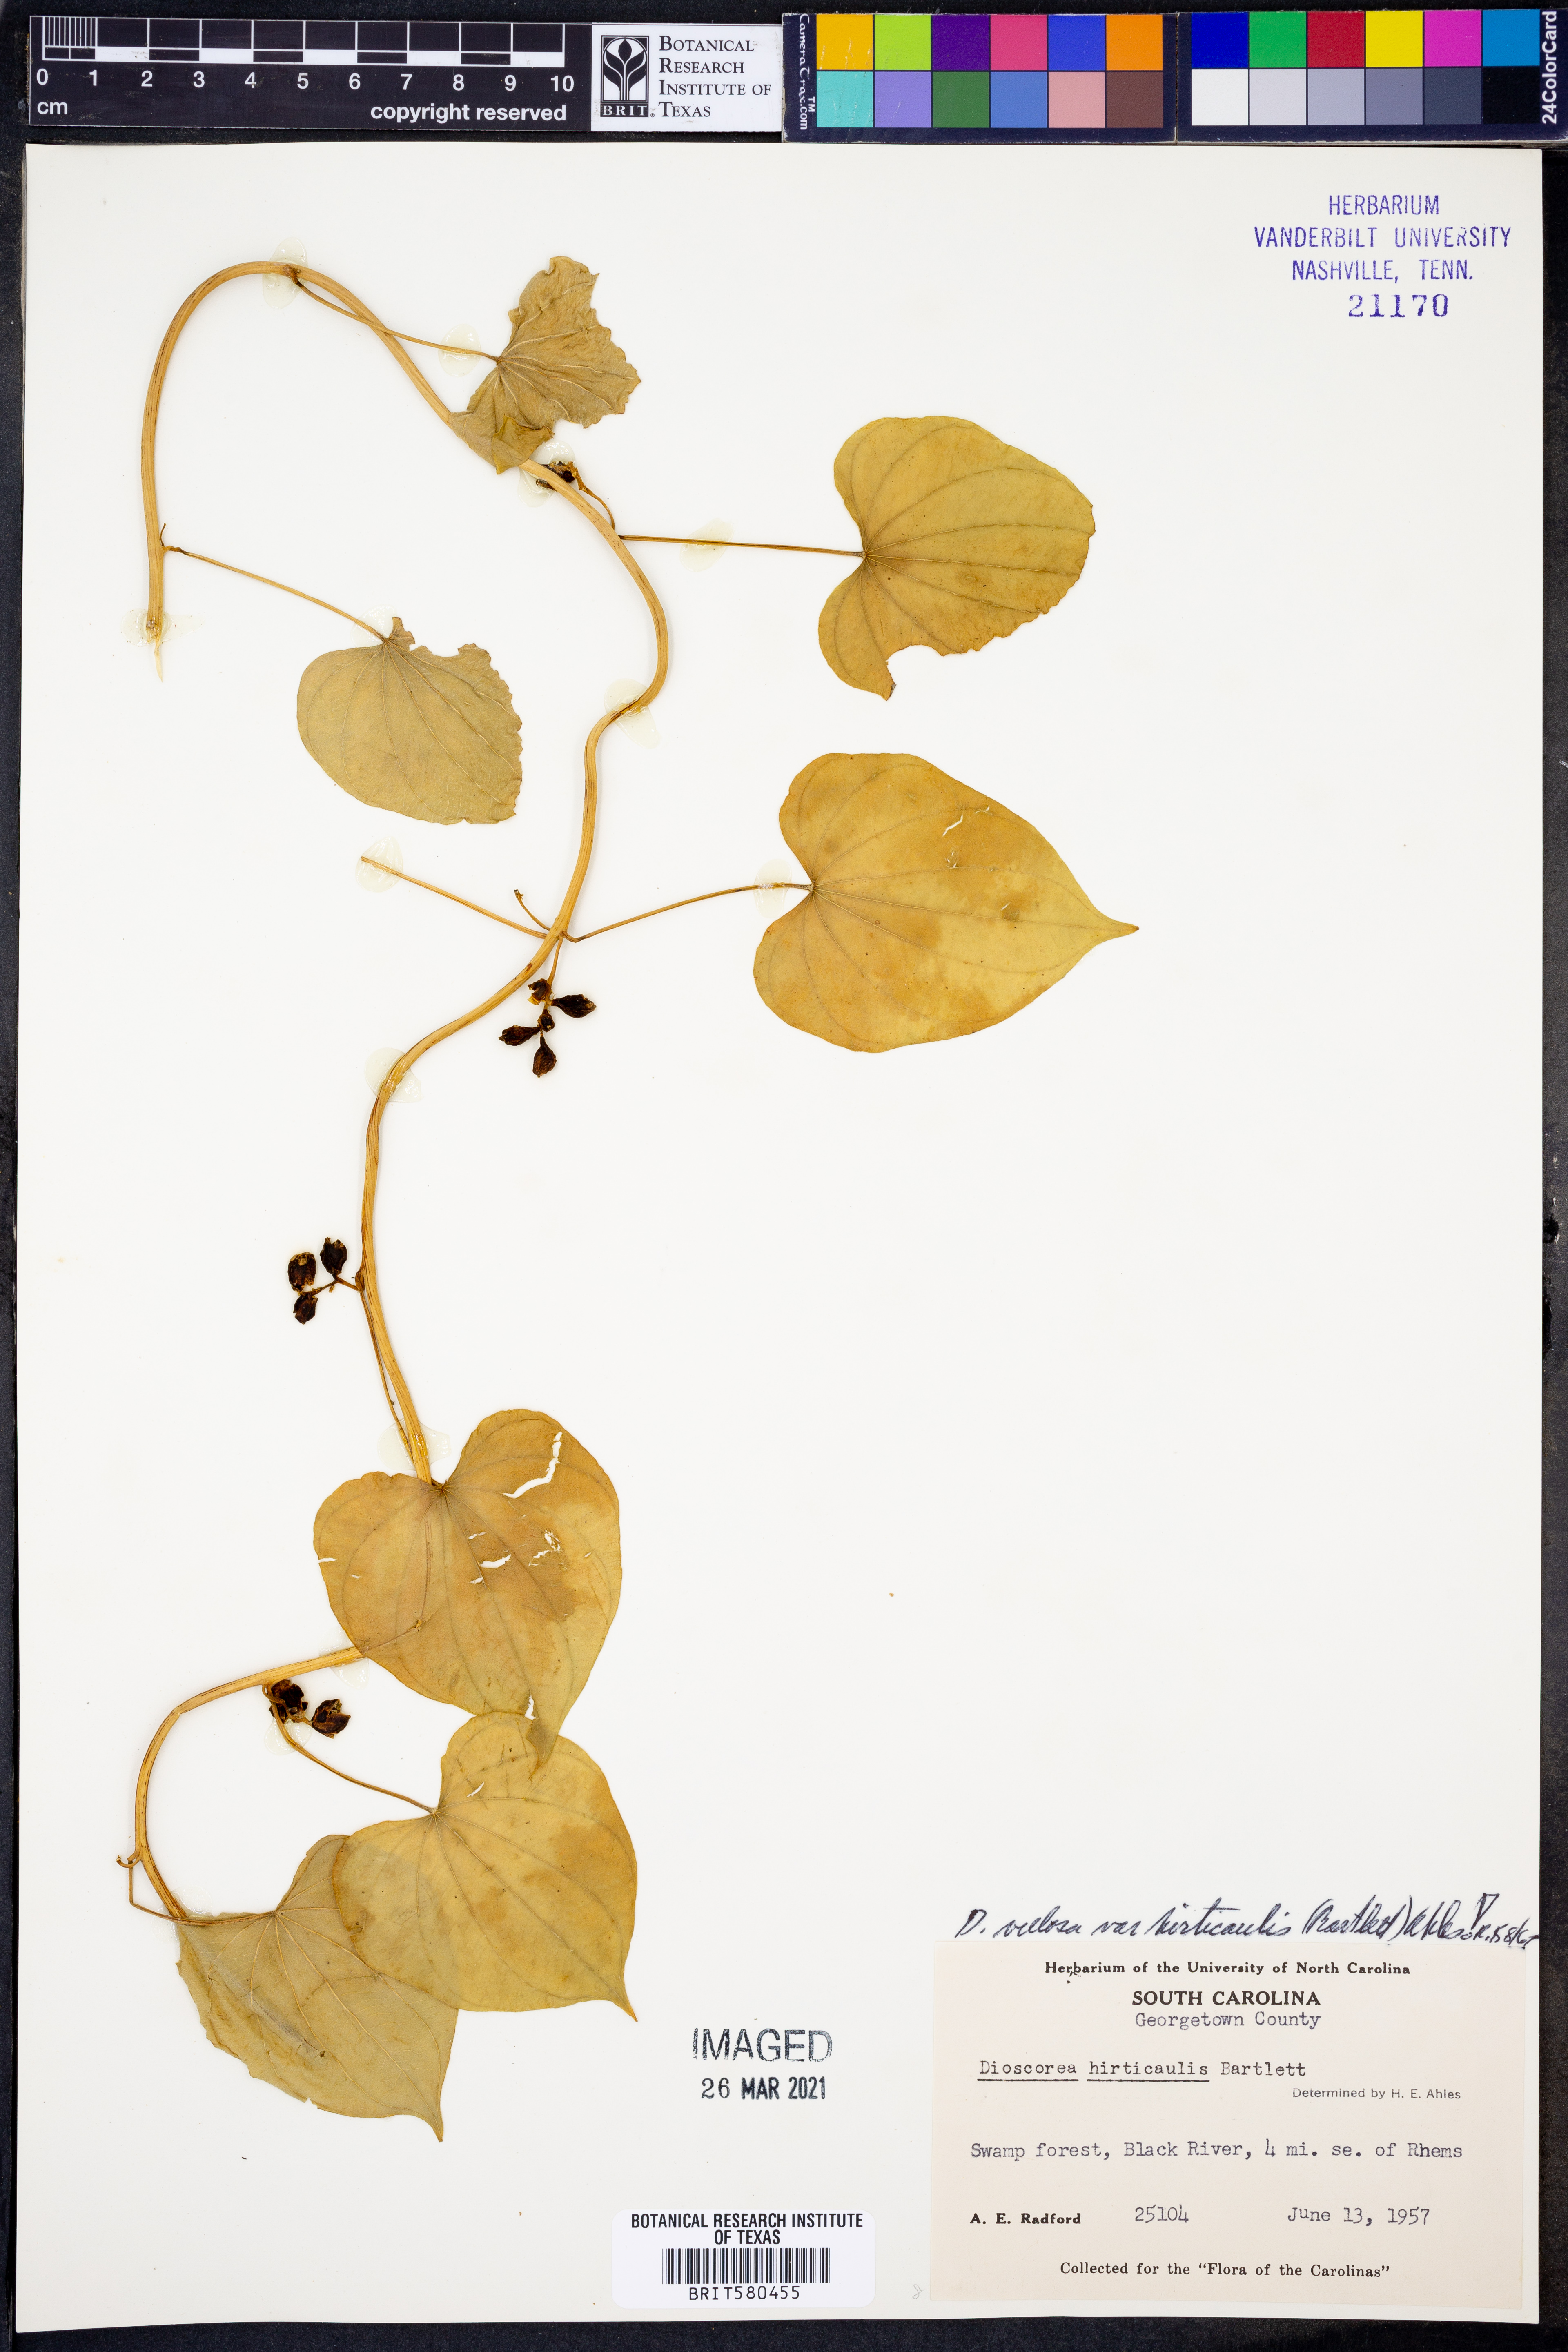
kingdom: Plantae
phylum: Tracheophyta
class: Liliopsida
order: Dioscoreales
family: Dioscoreaceae
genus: Dioscorea
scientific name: Dioscorea villosa
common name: Wild yam
